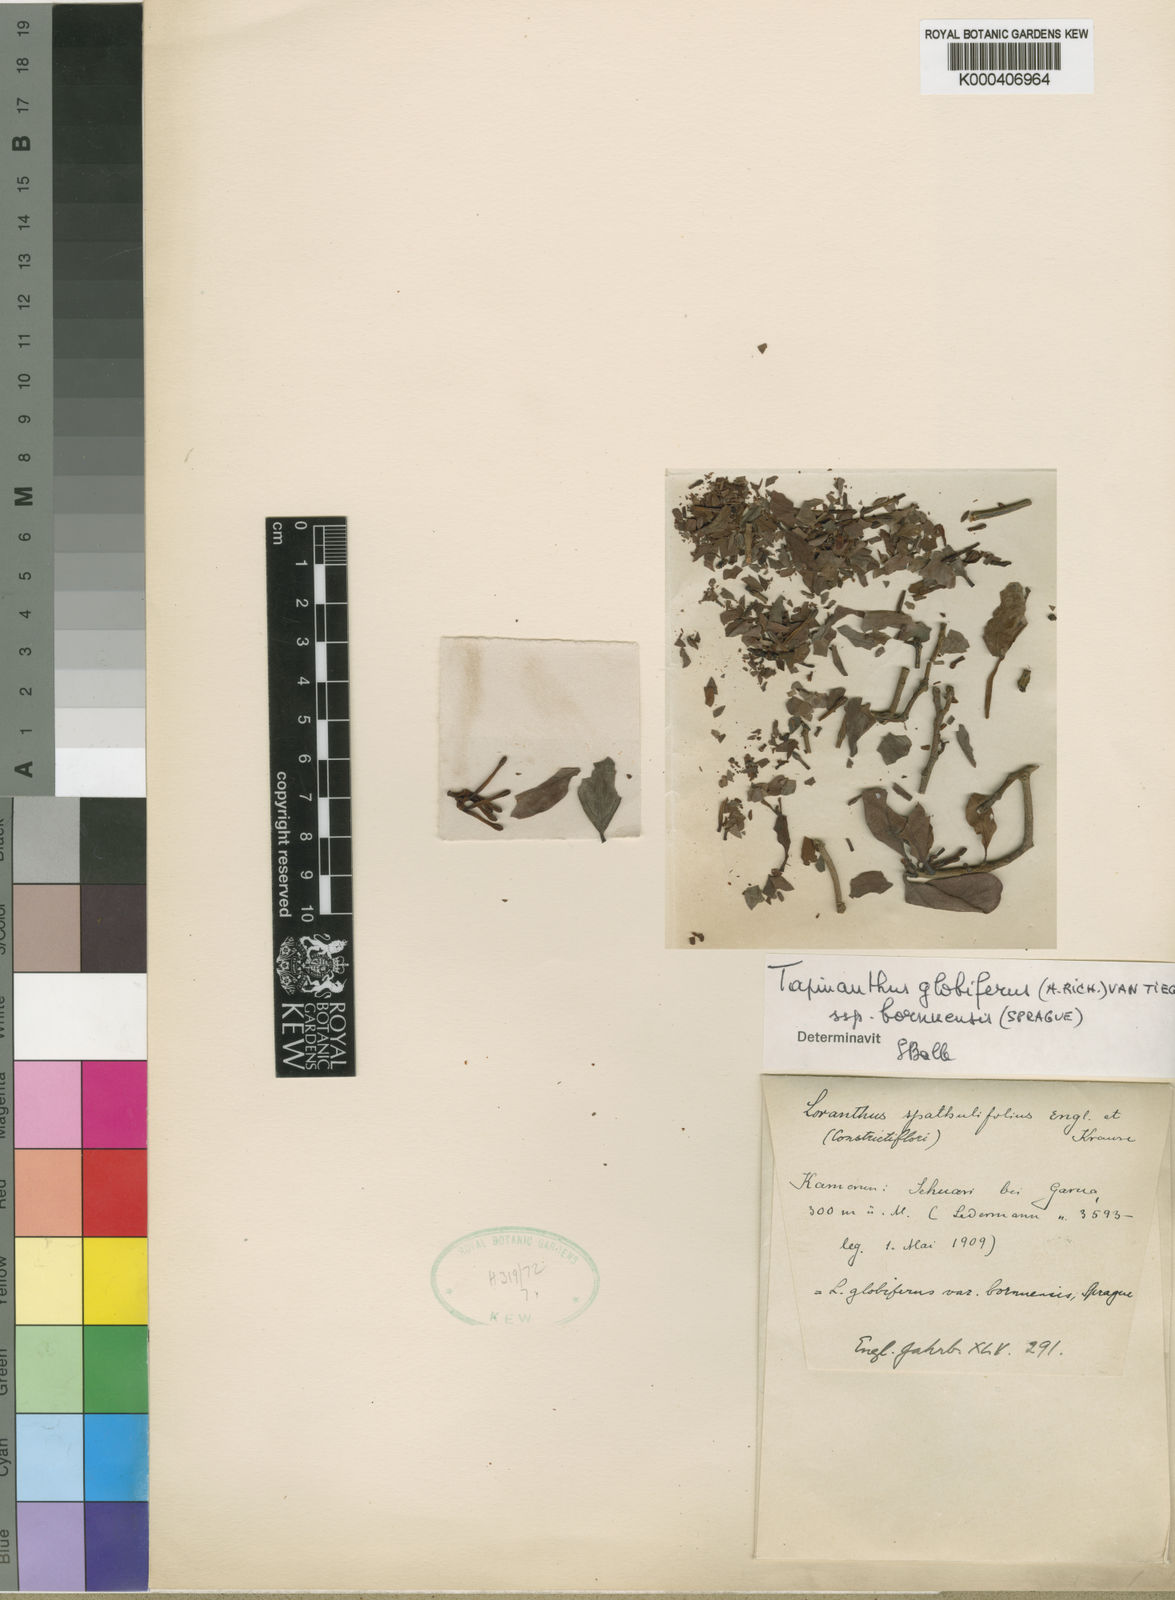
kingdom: Plantae
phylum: Tracheophyta
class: Magnoliopsida
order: Santalales
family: Loranthaceae
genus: Tapinanthus
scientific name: Tapinanthus
